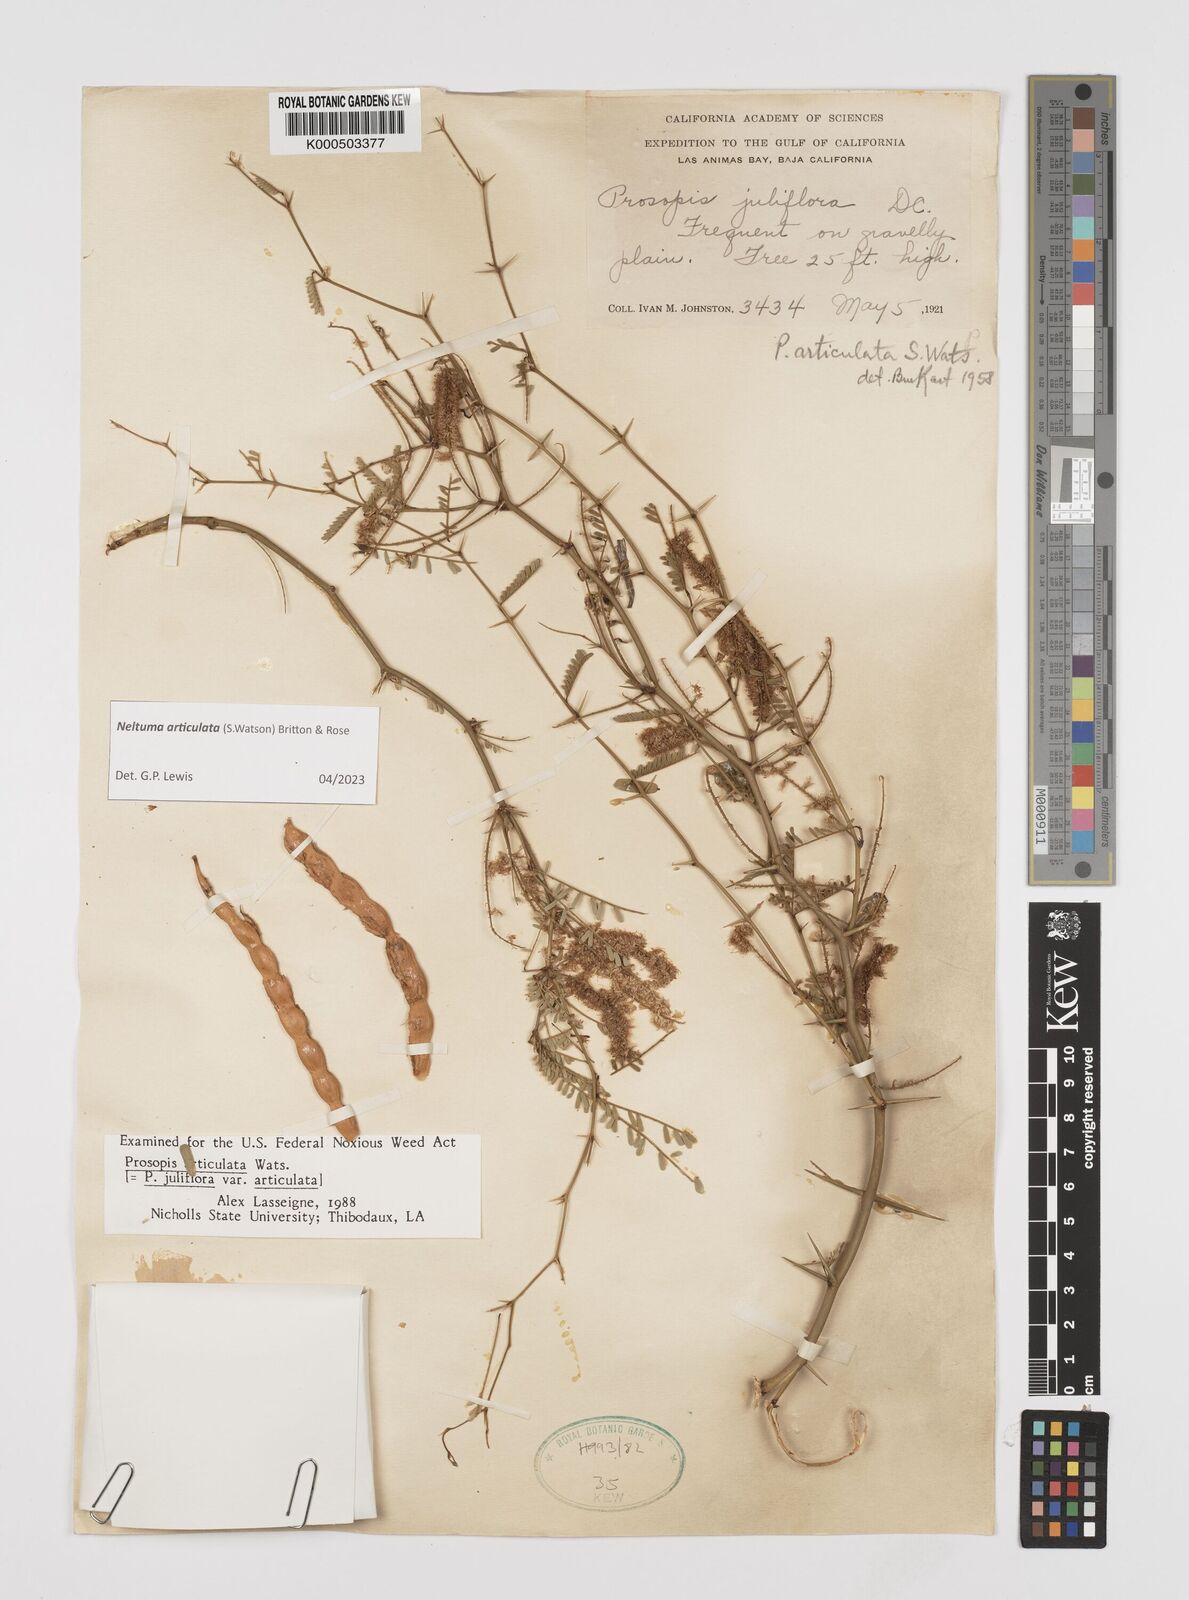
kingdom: Plantae
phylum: Tracheophyta
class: Magnoliopsida
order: Fabales
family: Fabaceae
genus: Prosopis
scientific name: Prosopis articulata
